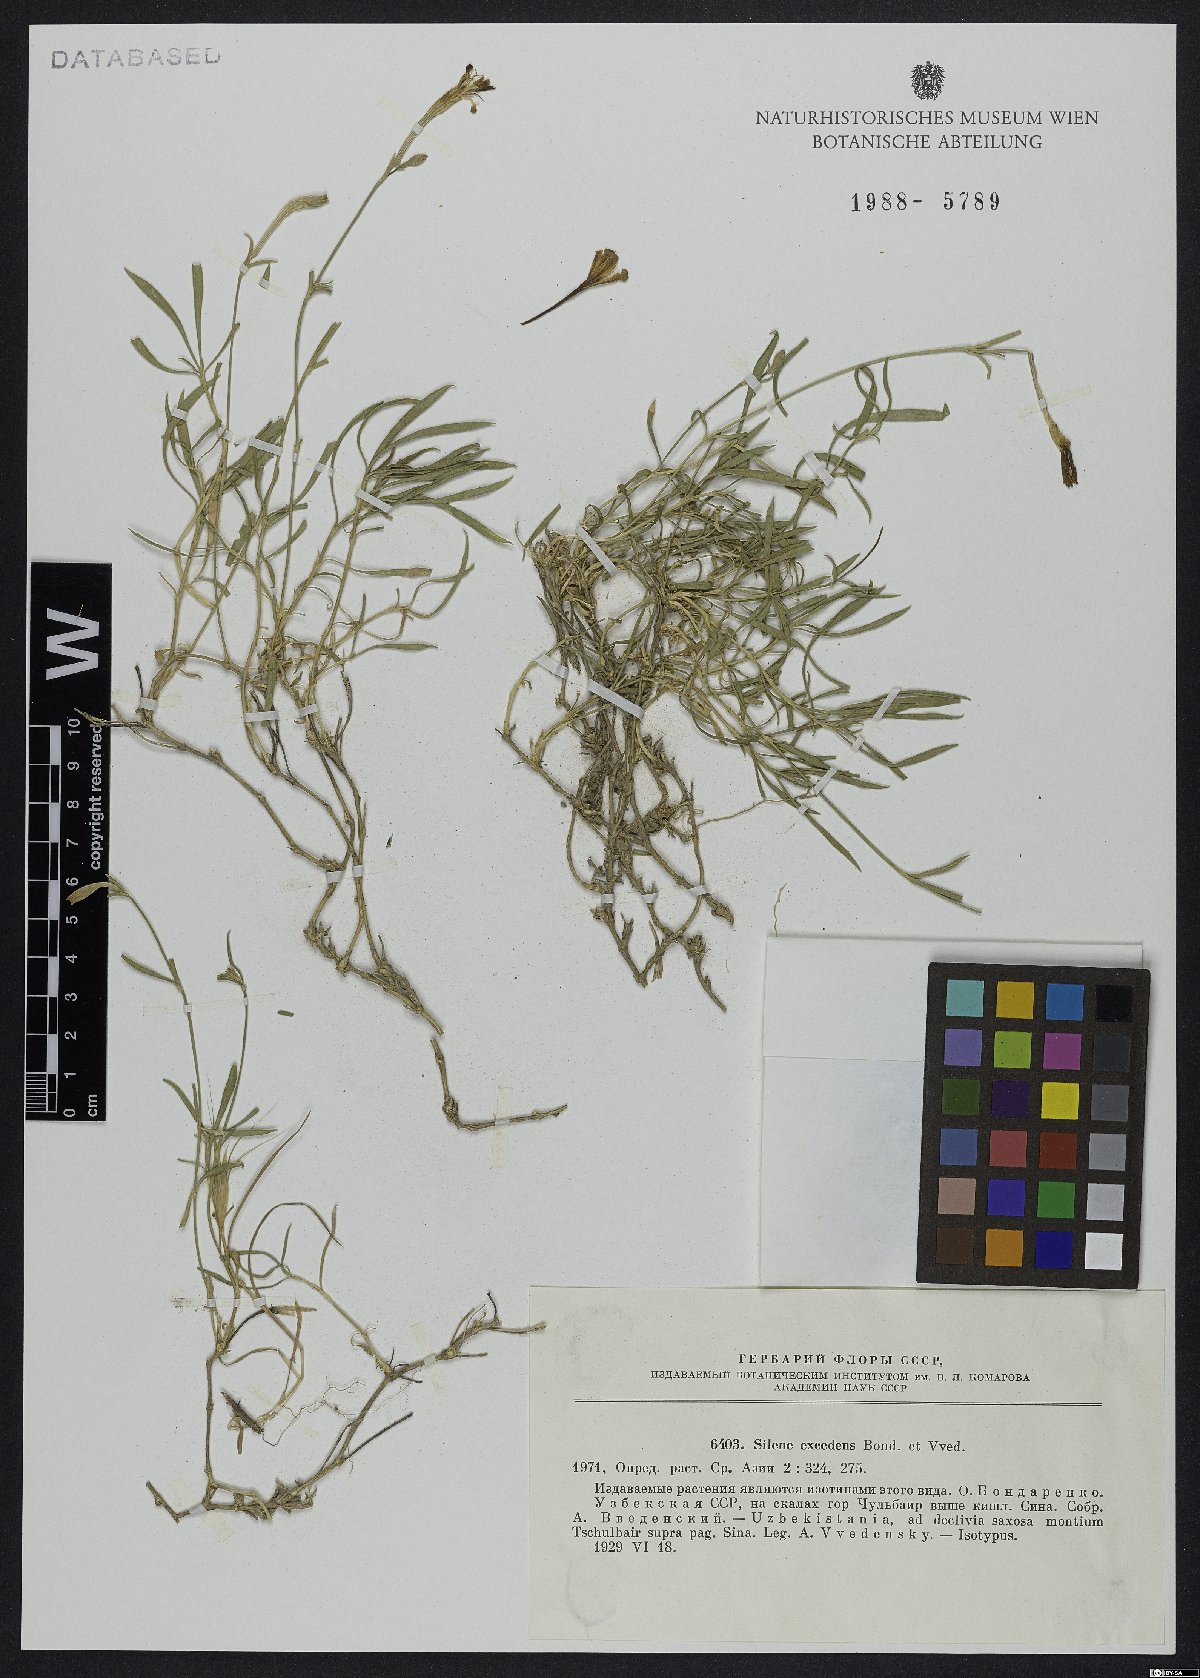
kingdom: Plantae
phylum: Tracheophyta
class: Magnoliopsida
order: Caryophyllales
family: Caryophyllaceae
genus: Silene
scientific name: Silene kuschakewiczii
